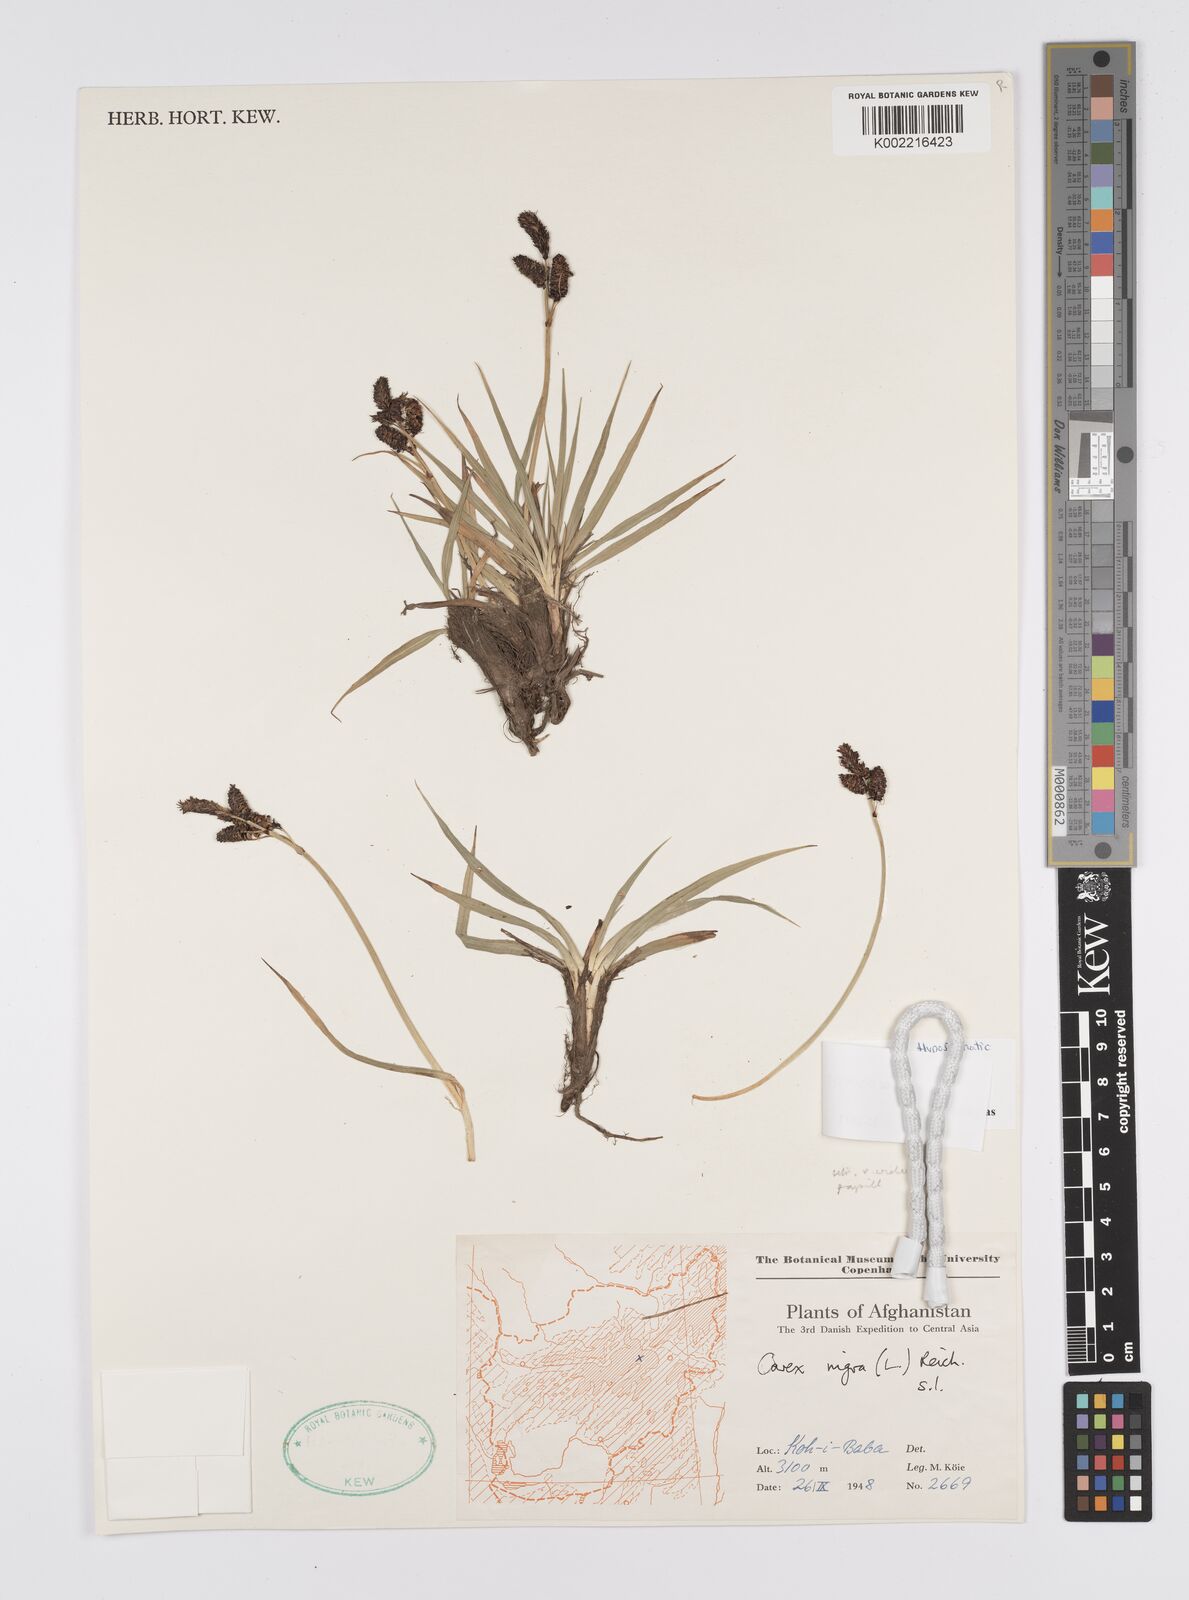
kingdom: Plantae
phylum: Tracheophyta
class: Liliopsida
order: Poales
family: Cyperaceae
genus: Carex
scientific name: Carex orbicularis
